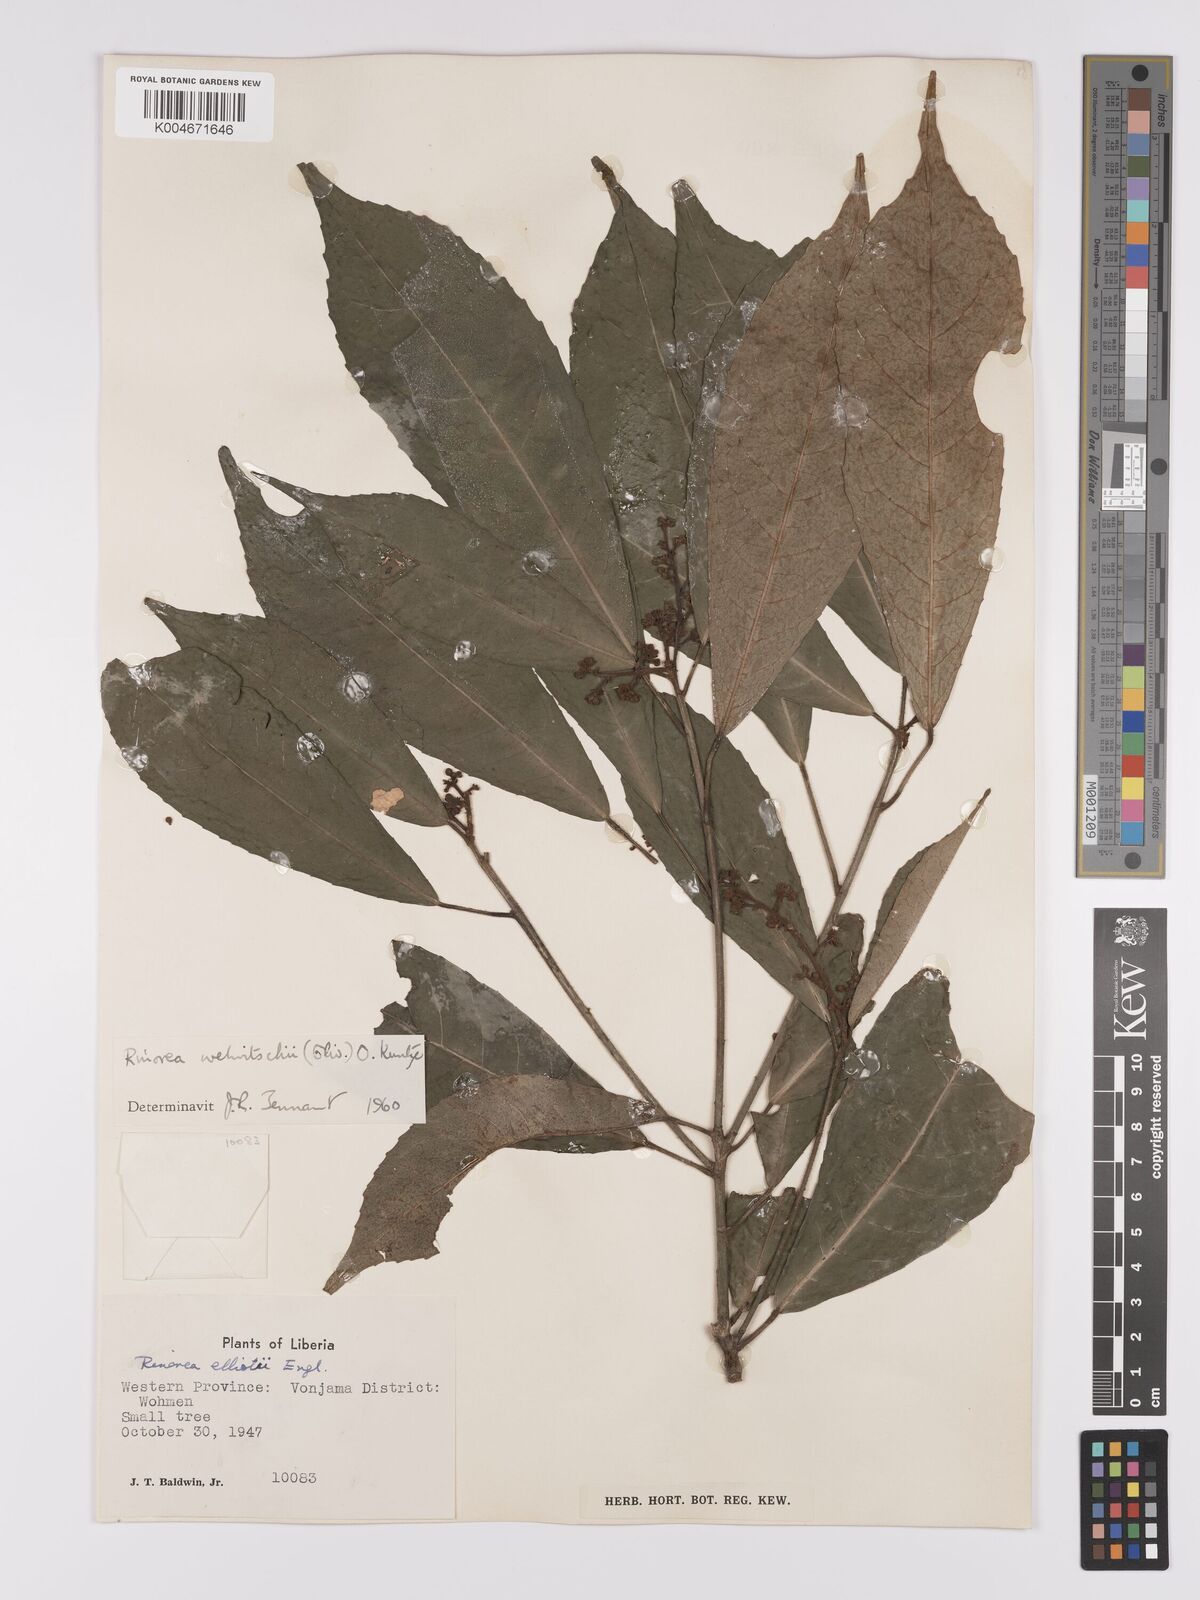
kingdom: Plantae
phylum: Tracheophyta
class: Magnoliopsida
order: Malpighiales
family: Violaceae
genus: Rinorea
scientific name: Rinorea welwitschii
